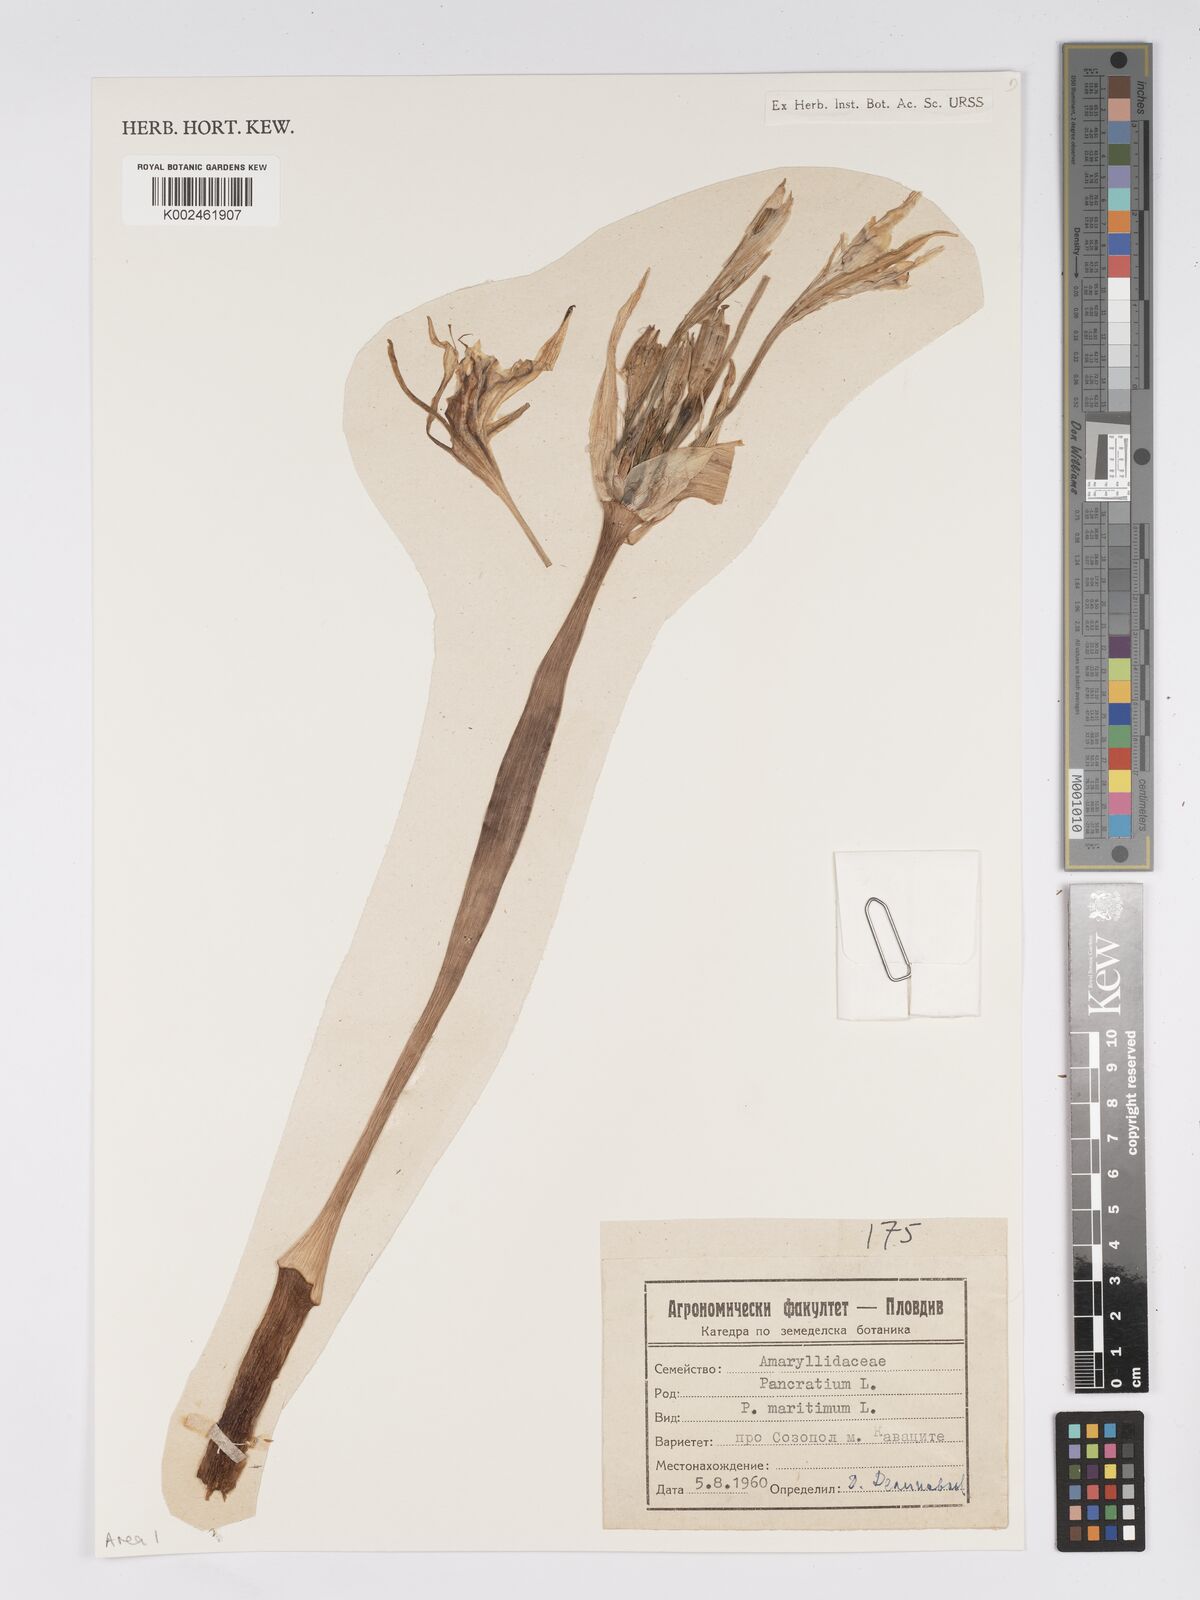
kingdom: Plantae
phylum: Tracheophyta
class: Liliopsida
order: Asparagales
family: Amaryllidaceae
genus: Pancratium
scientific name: Pancratium maritimum
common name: Sea-daffodil
